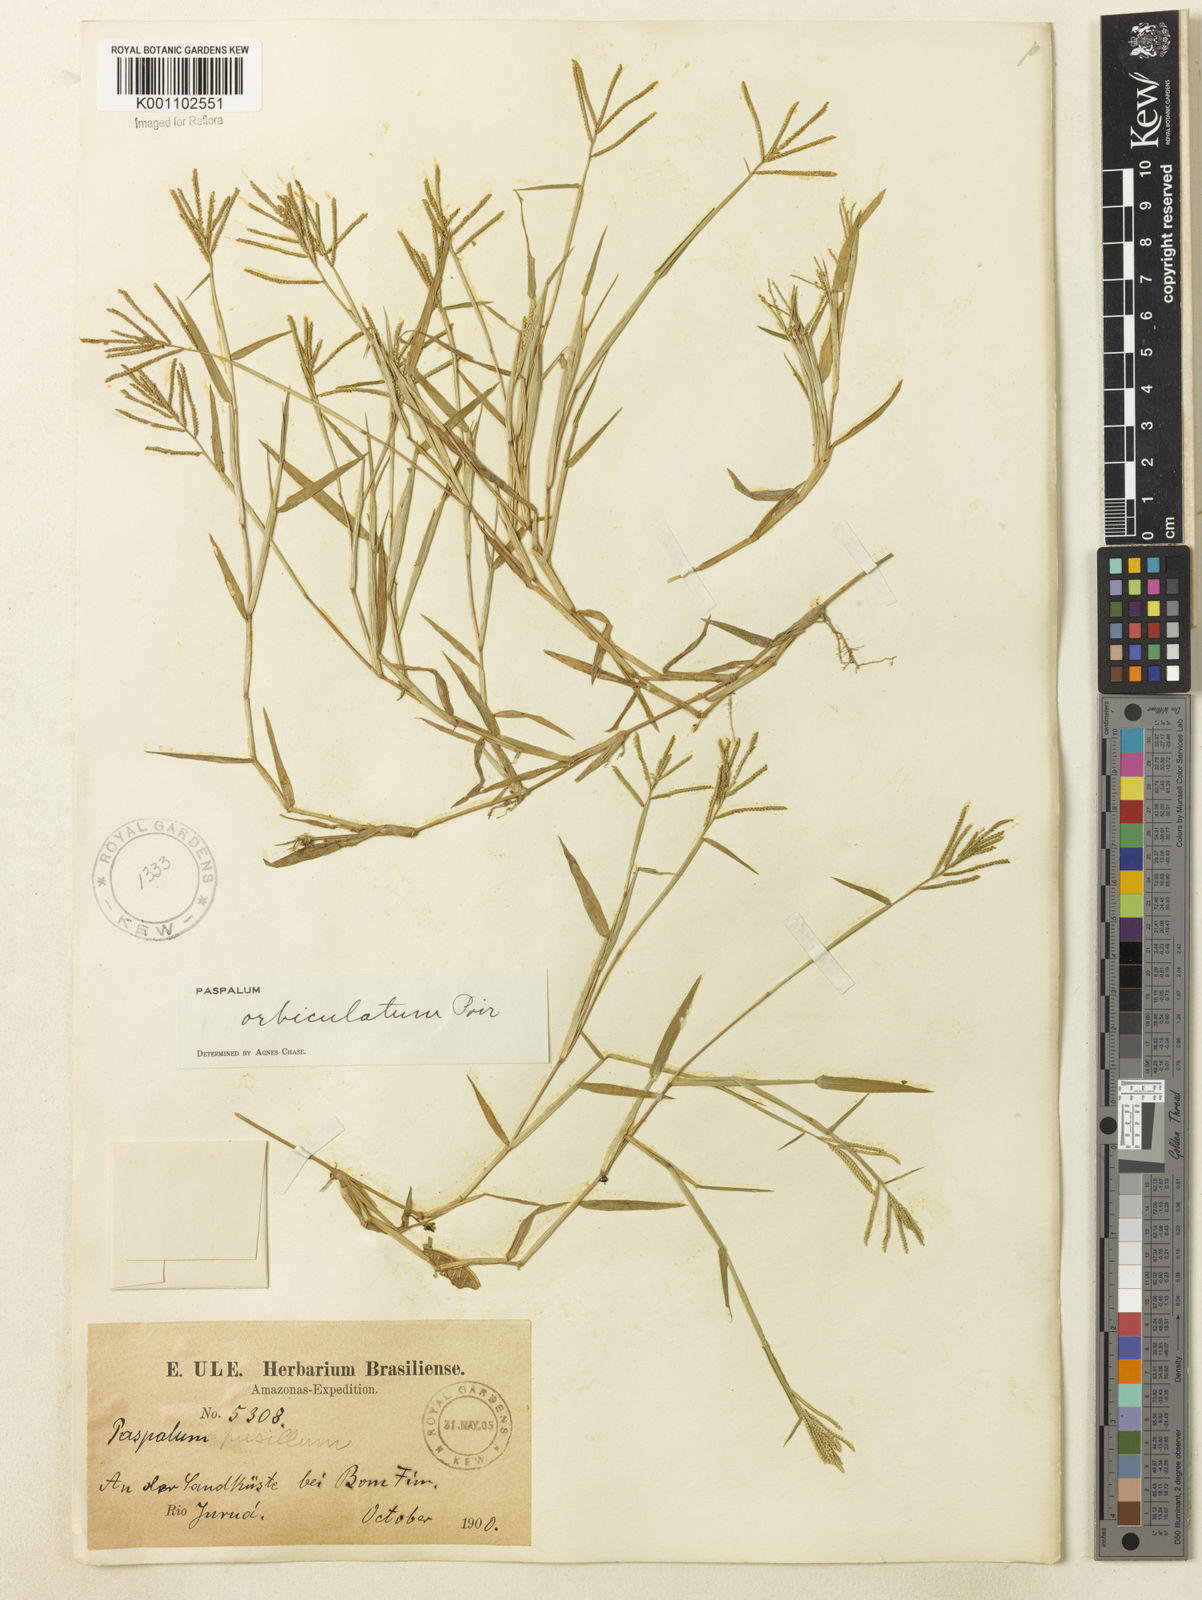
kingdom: Plantae
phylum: Tracheophyta
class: Liliopsida
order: Poales
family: Poaceae
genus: Paspalum
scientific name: Paspalum orbiculatum
